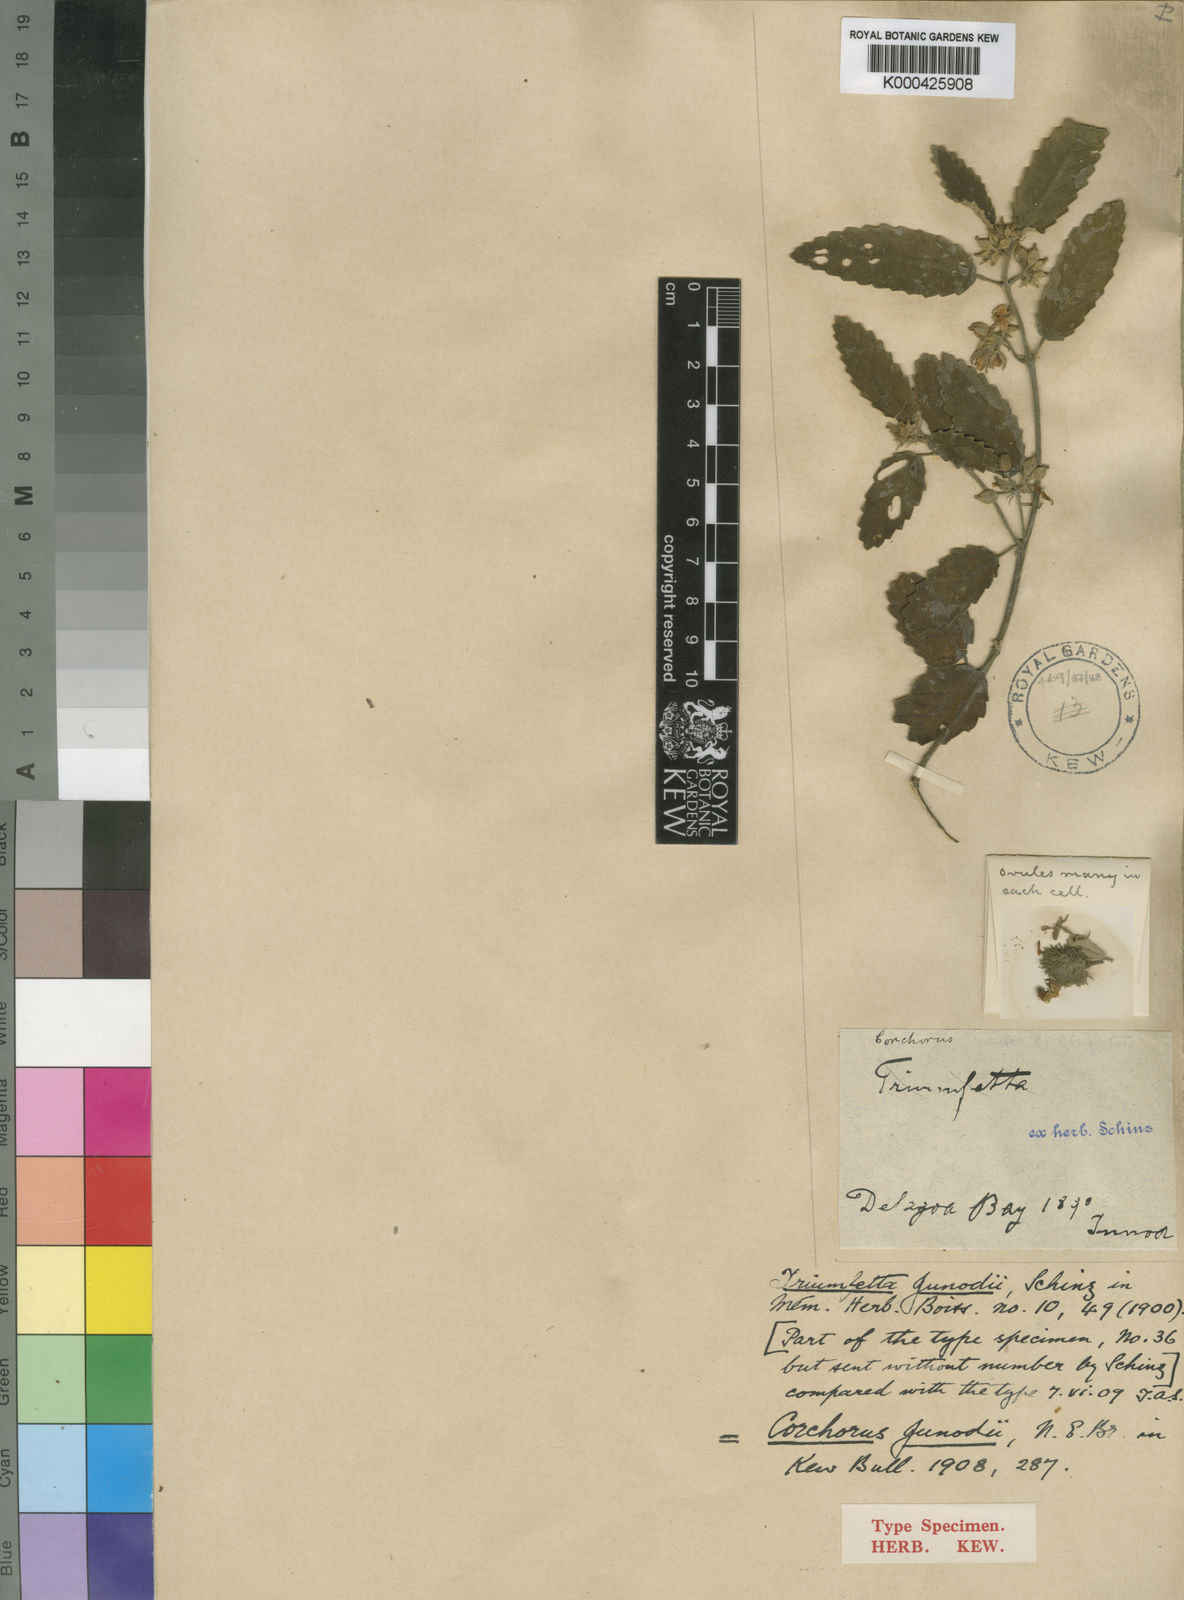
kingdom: Plantae
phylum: Tracheophyta
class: Magnoliopsida
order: Malvales
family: Malvaceae
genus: Corchorus
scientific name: Corchorus junodii
